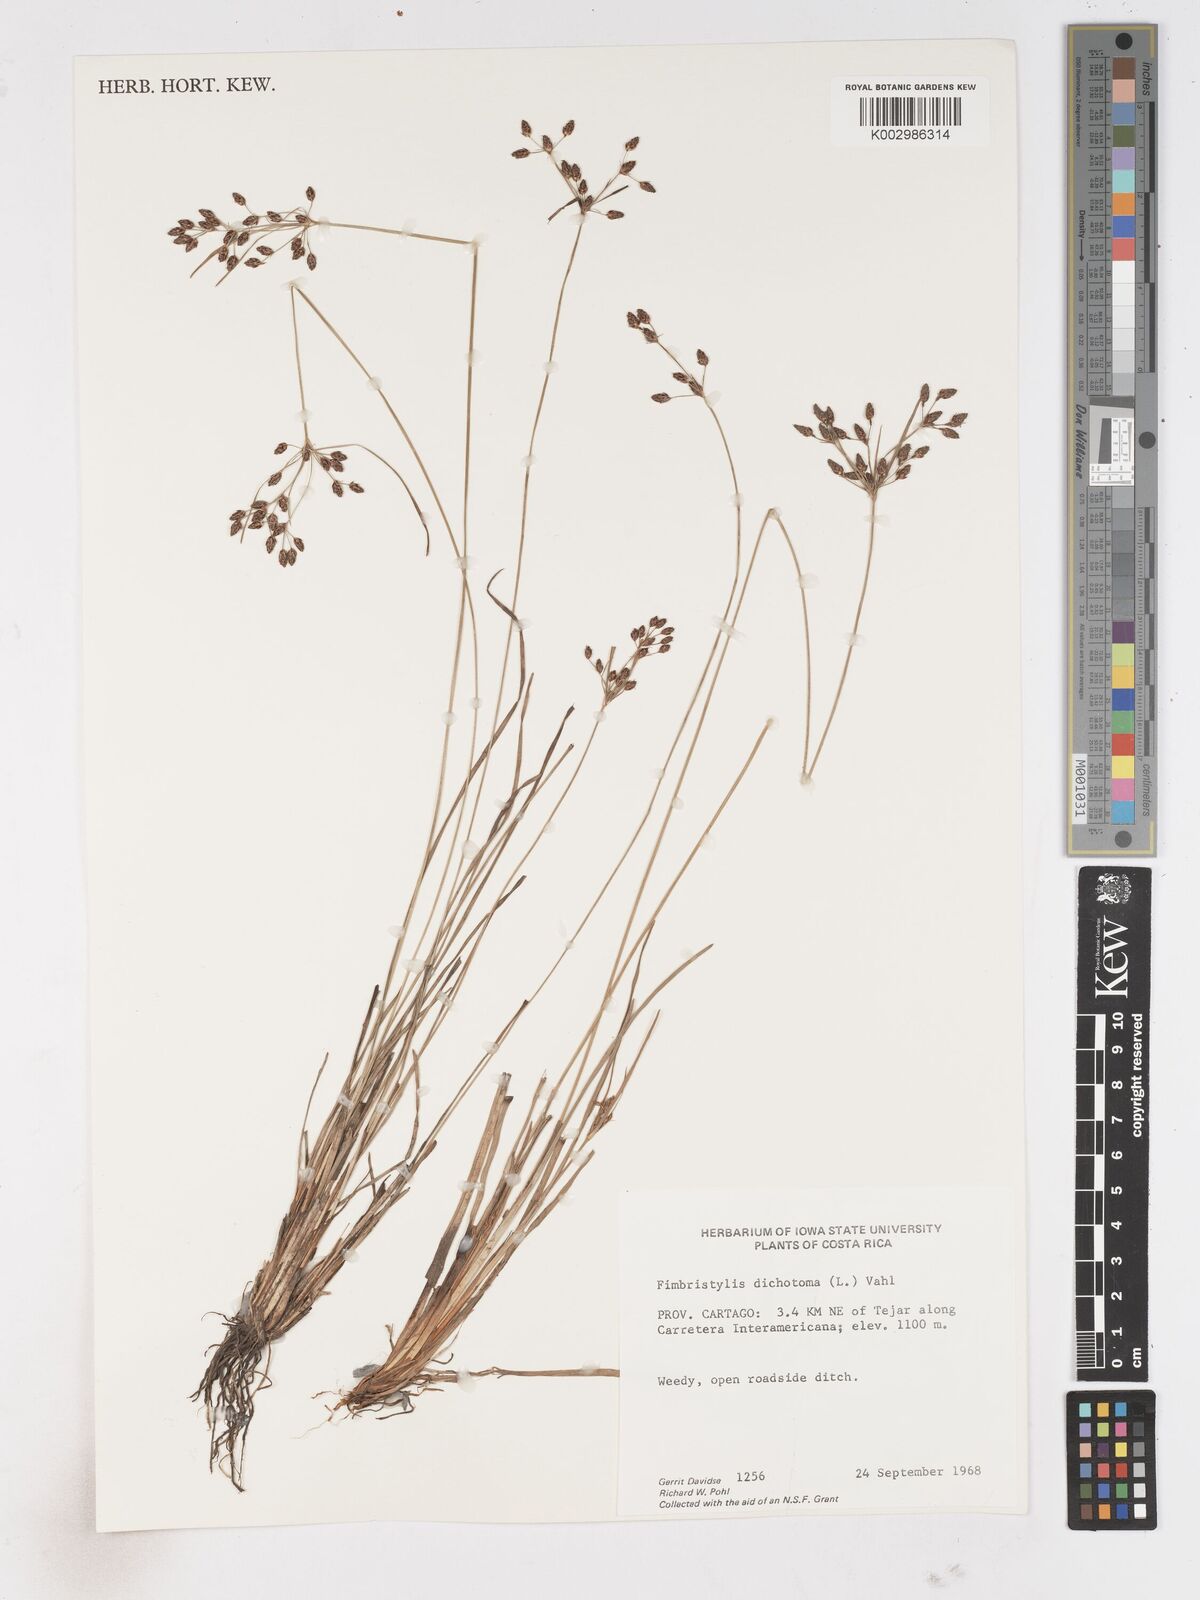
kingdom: Plantae
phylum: Tracheophyta
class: Liliopsida
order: Poales
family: Cyperaceae
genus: Fimbristylis
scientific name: Fimbristylis dichotoma
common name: Forked fimbry
